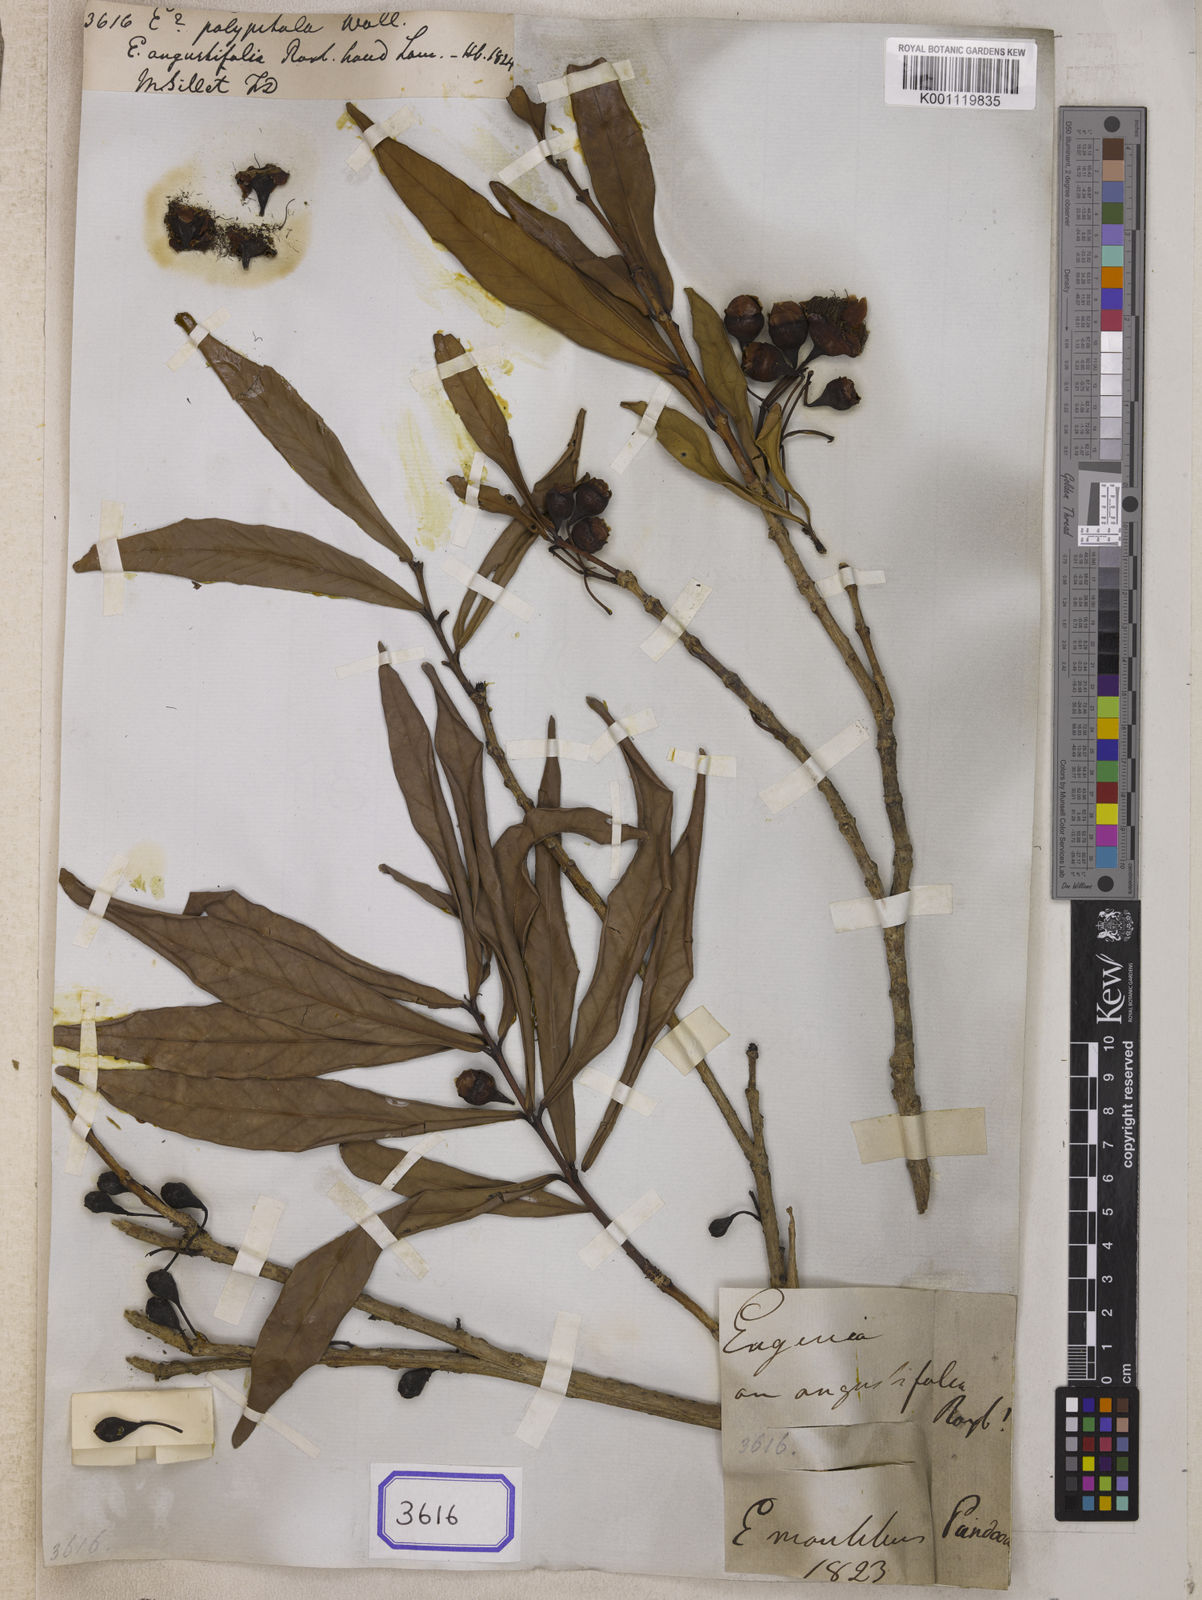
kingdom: Plantae
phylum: Tracheophyta
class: Magnoliopsida
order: Myrtales
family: Myrtaceae
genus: Syzygium
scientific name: Syzygium polypetalum
